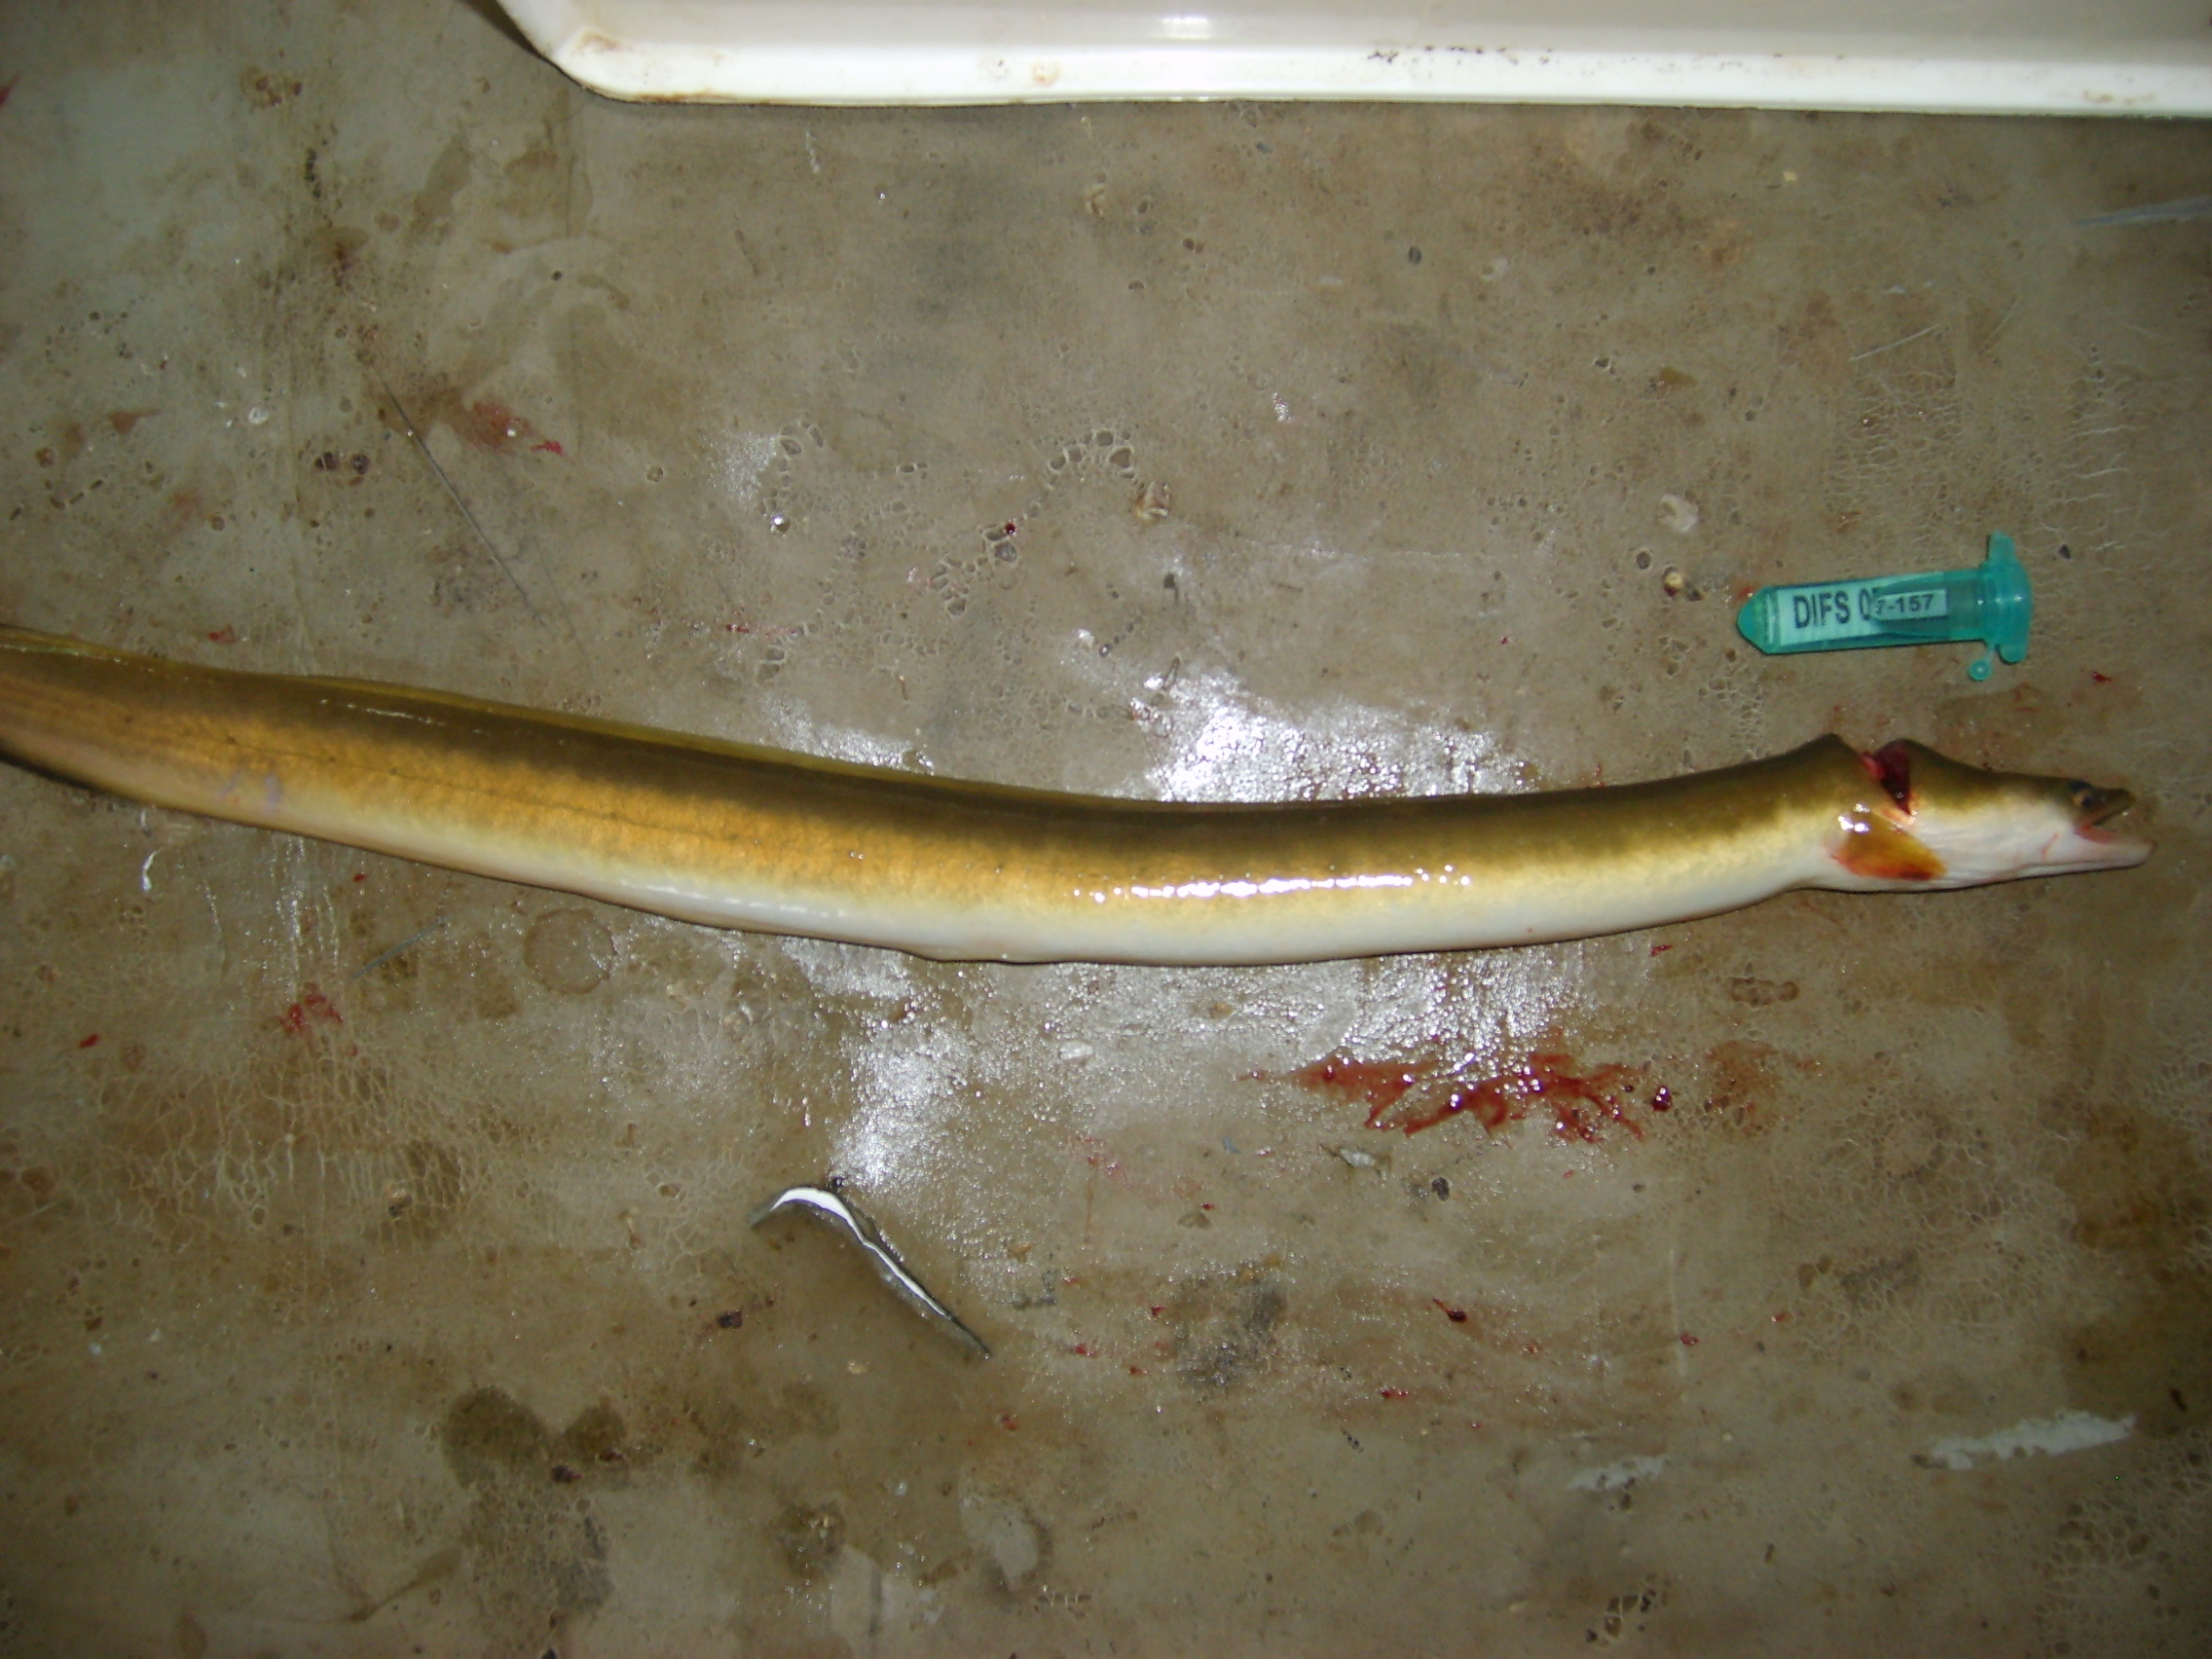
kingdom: Animalia
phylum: Chordata
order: Anguilliformes
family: Anguillidae
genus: Anguilla
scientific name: Anguilla mossambica
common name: African longfin eel
